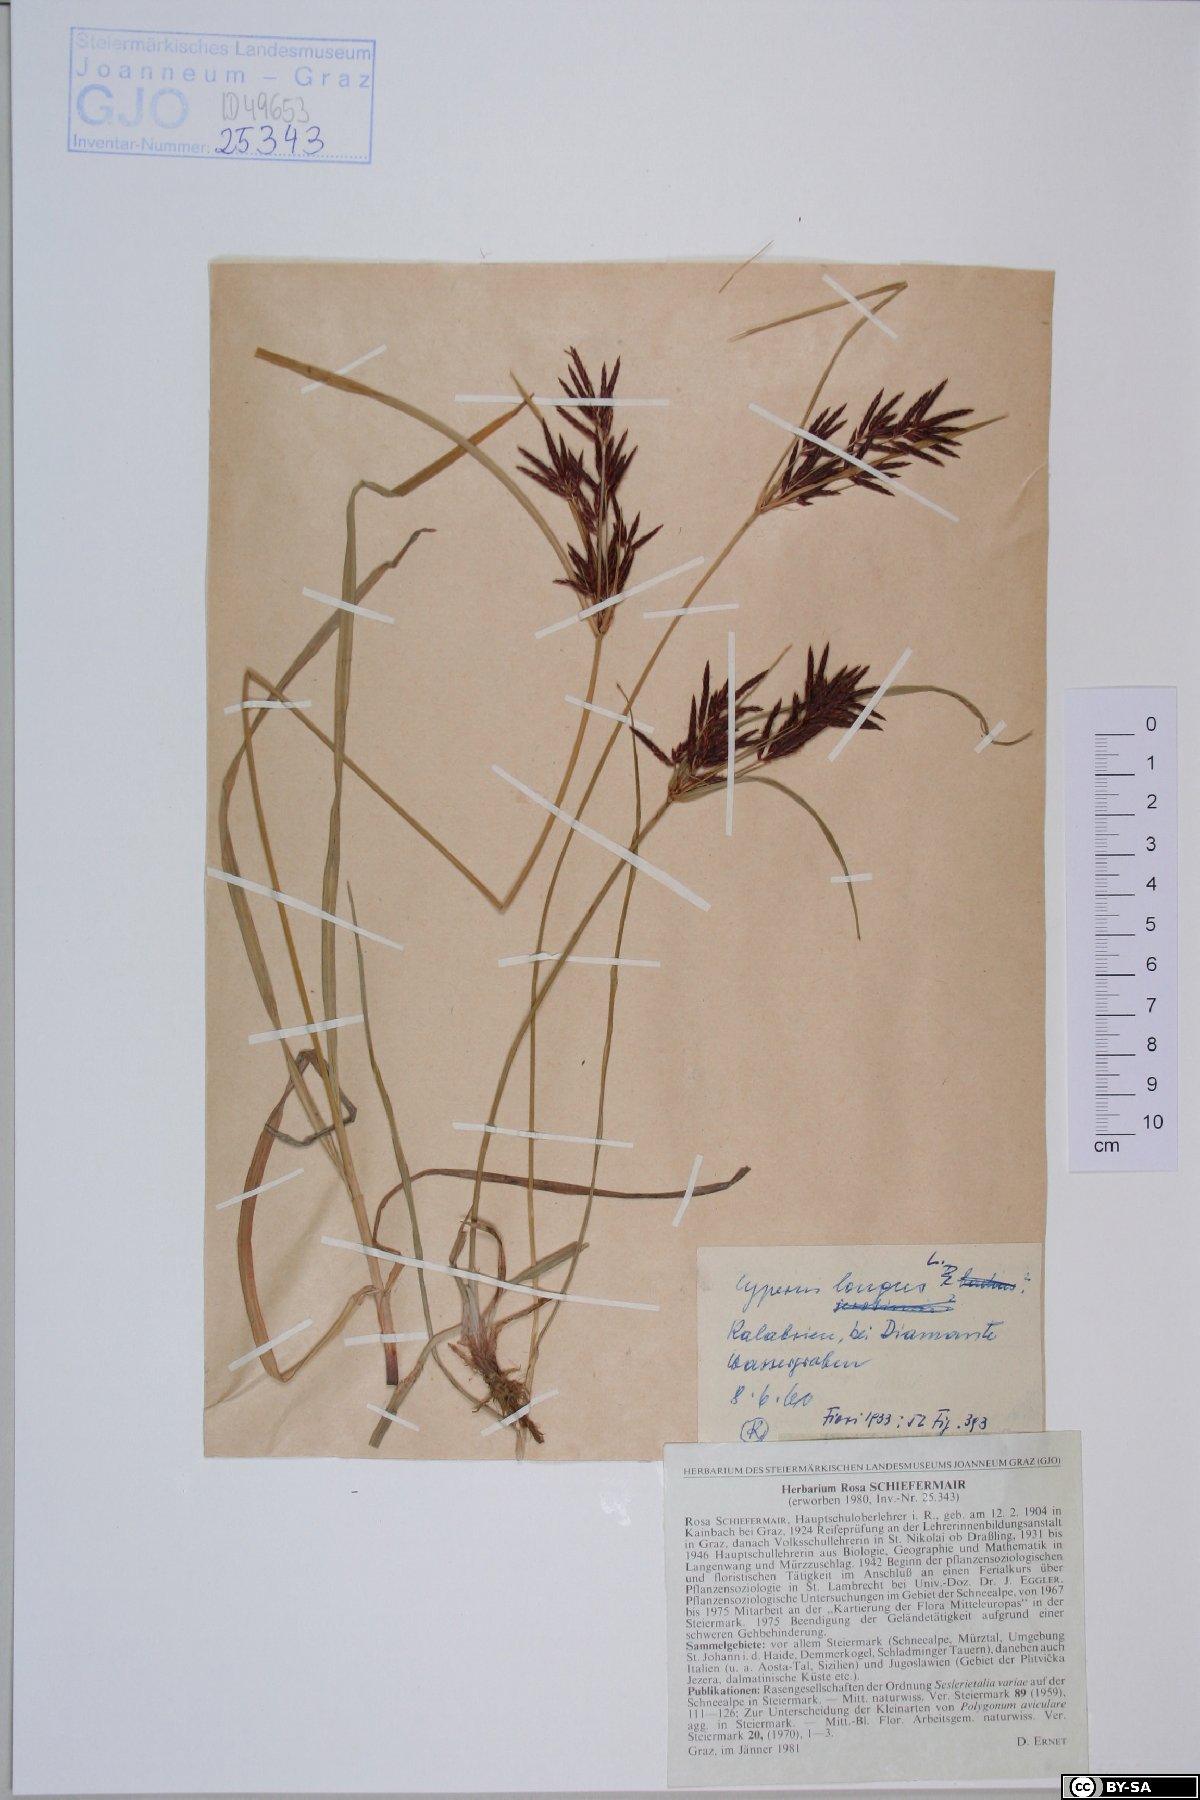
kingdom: Plantae
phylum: Tracheophyta
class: Liliopsida
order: Poales
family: Cyperaceae
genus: Cyperus
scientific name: Cyperus longus
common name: Galingale
